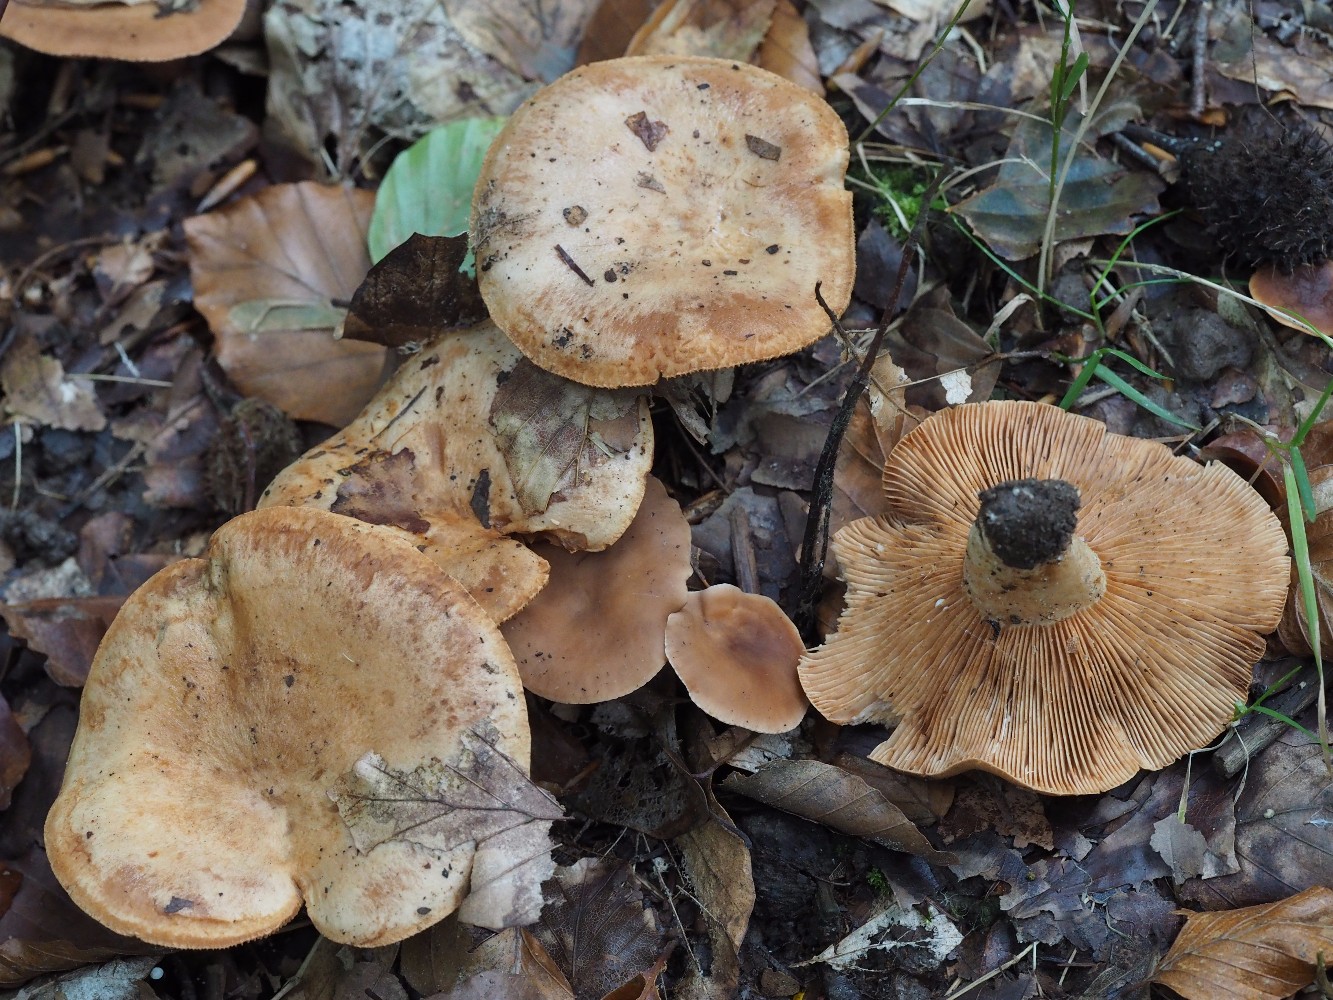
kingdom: Fungi
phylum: Basidiomycota
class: Agaricomycetes
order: Russulales
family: Russulaceae
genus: Lactarius
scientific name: Lactarius pallidus
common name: bleg mælkehat
